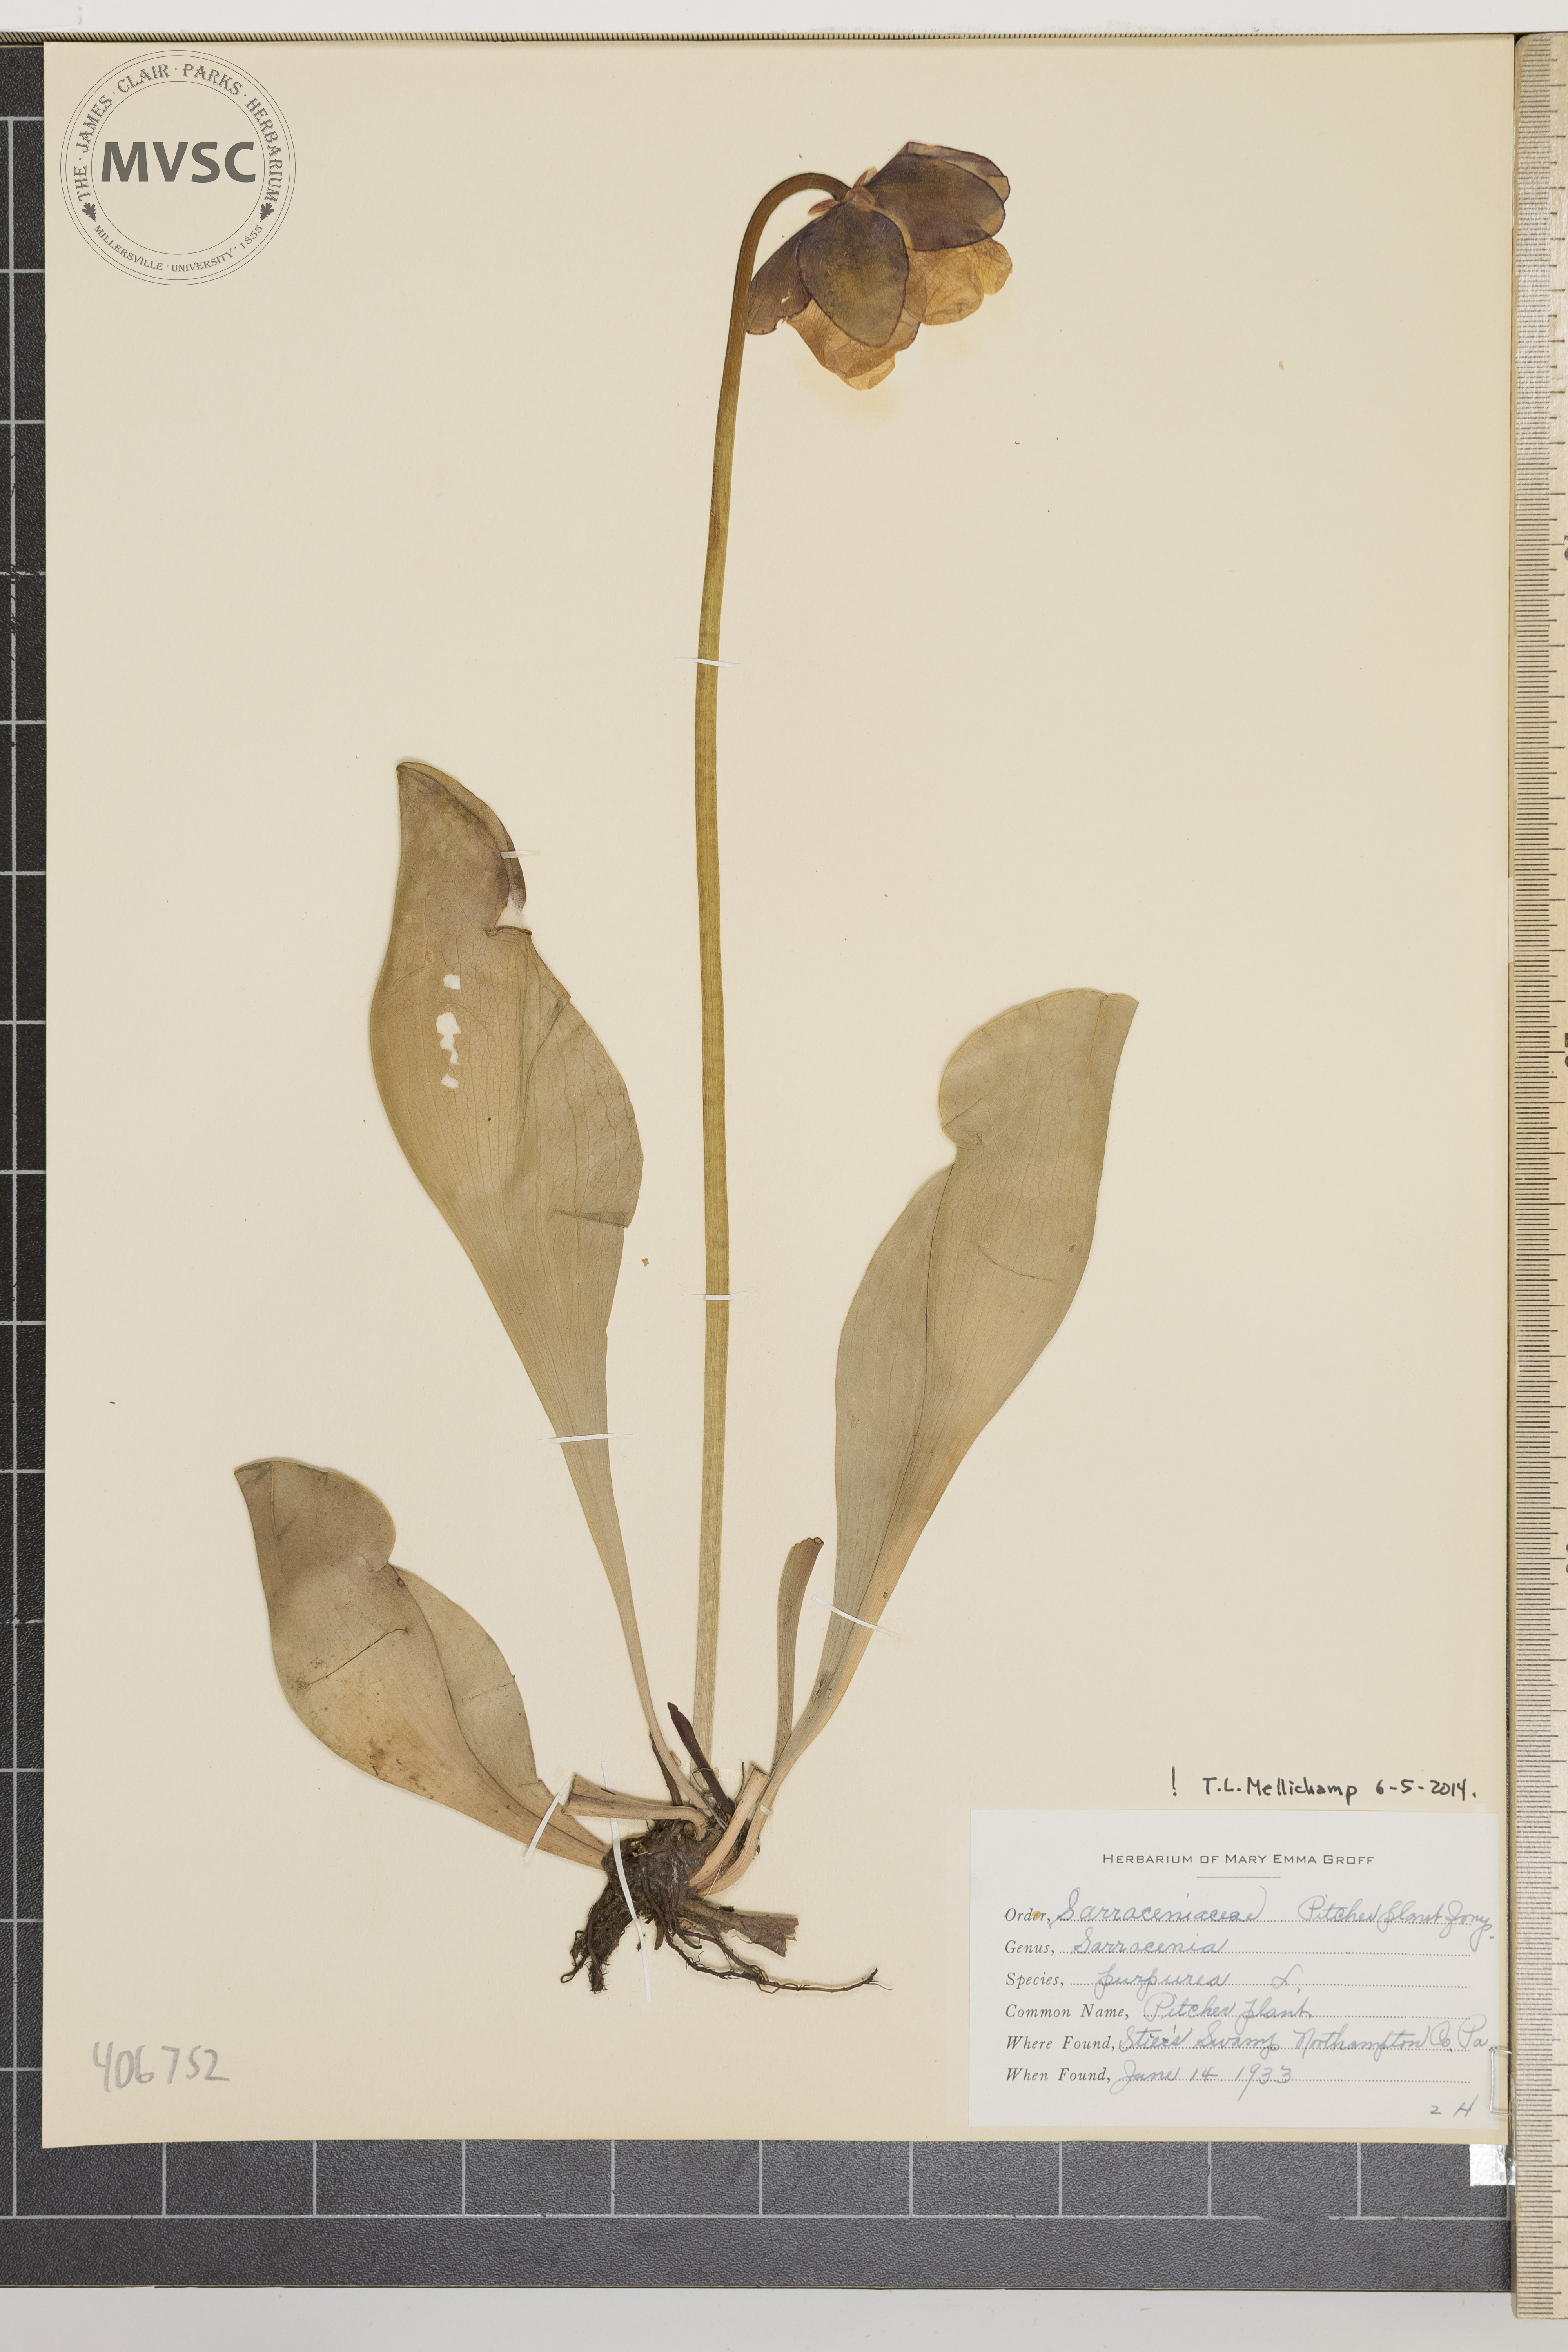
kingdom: Plantae
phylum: Tracheophyta
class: Magnoliopsida
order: Ericales
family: Sarraceniaceae
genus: Sarracenia
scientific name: Sarracenia purpurea
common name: Pitcher Plant
